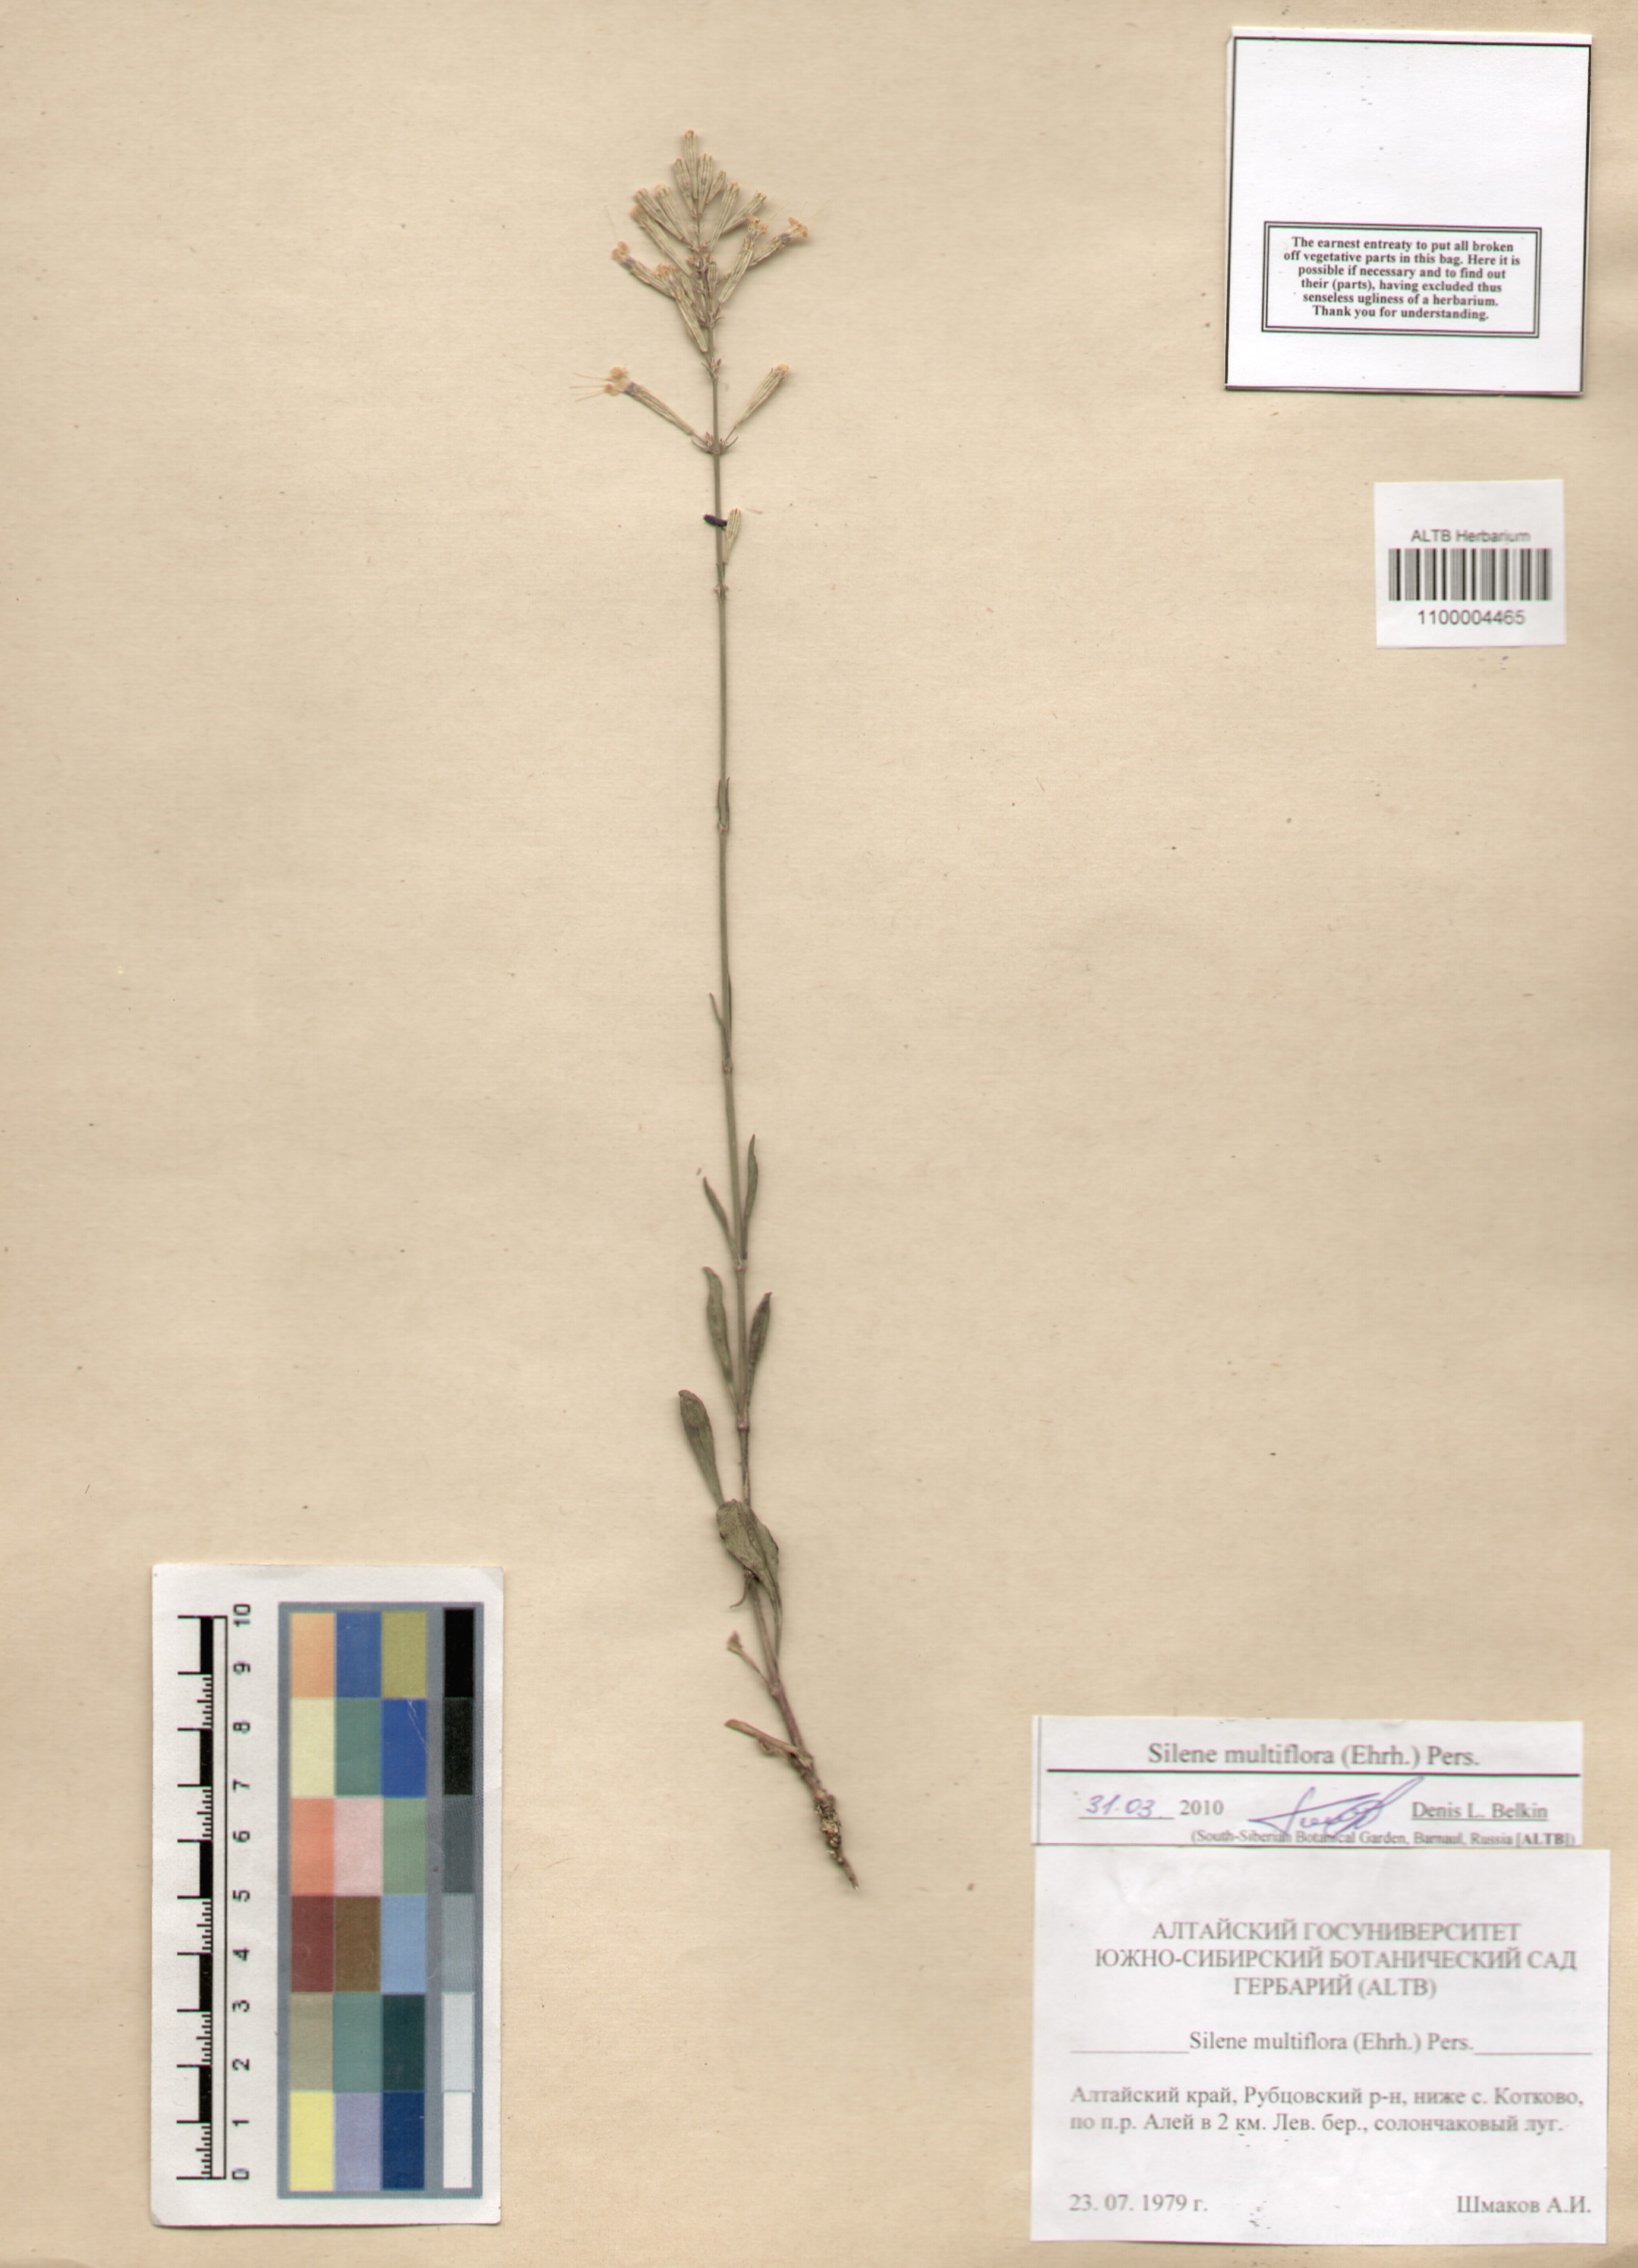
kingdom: Plantae
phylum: Tracheophyta
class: Magnoliopsida
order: Caryophyllales
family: Caryophyllaceae
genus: Silene
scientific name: Silene multiflora
